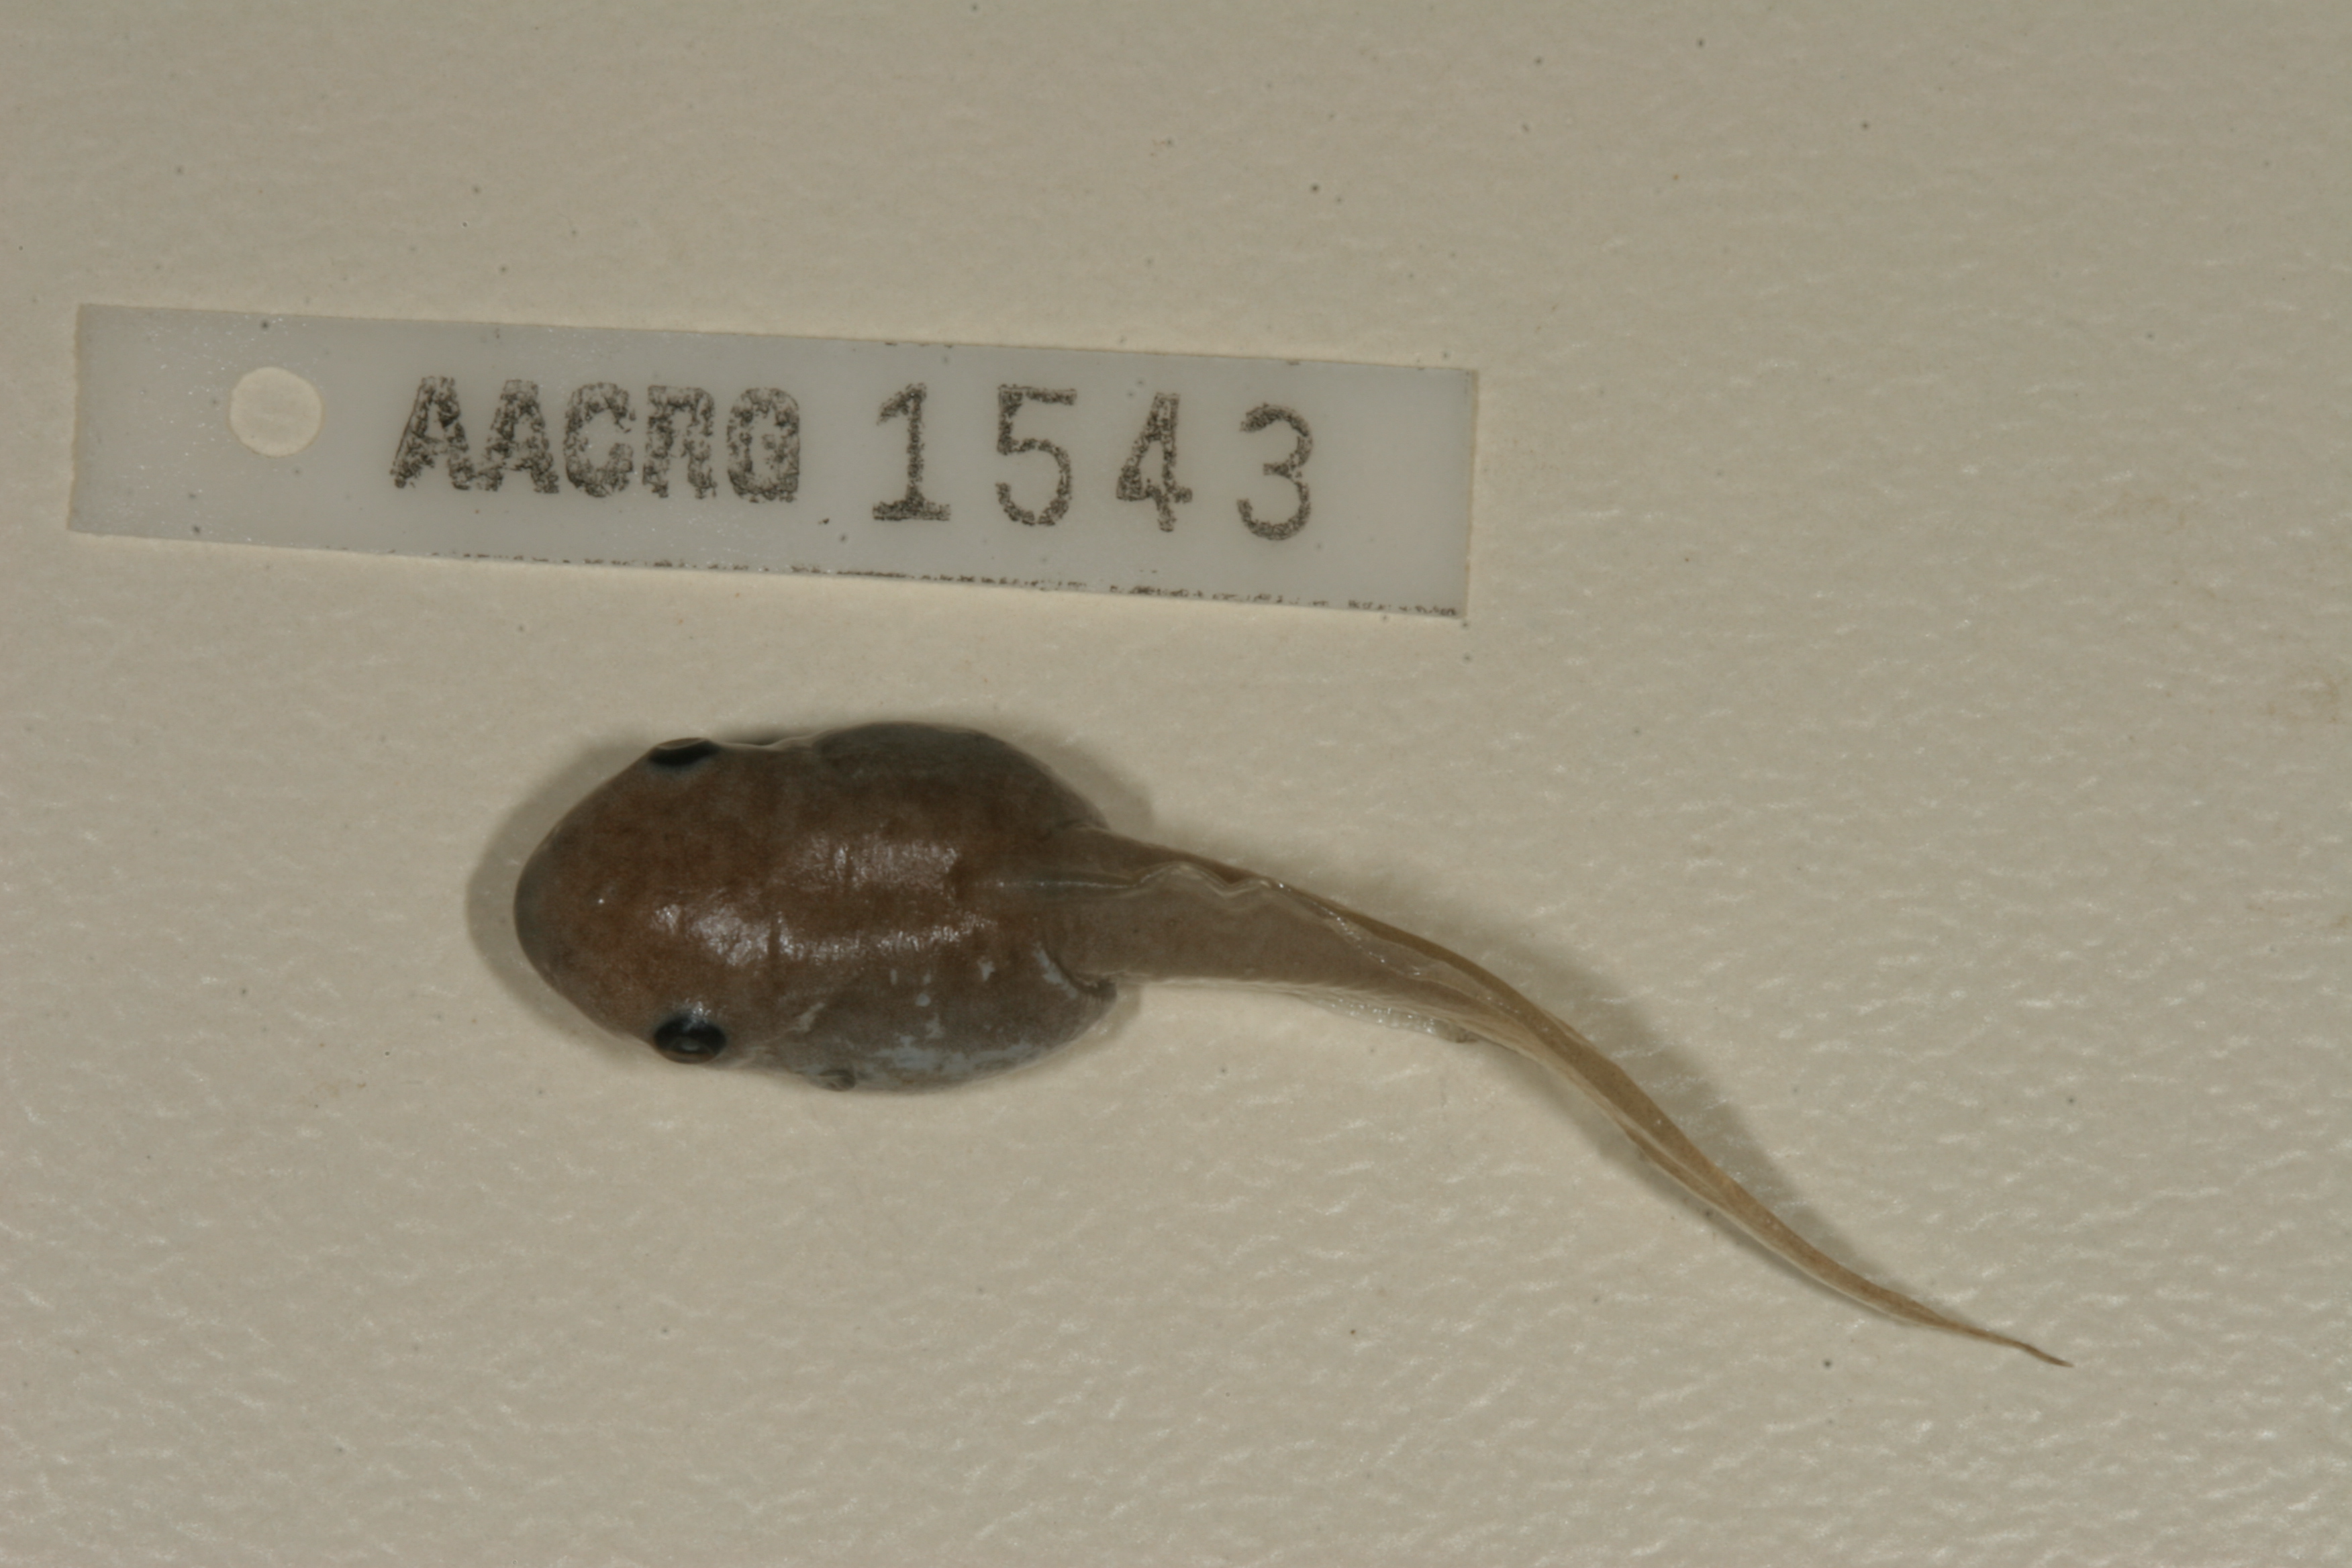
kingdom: Animalia
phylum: Chordata
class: Amphibia
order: Anura
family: Hemisotidae
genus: Hemisus
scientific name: Hemisus marmoratus
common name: Mottled shovel-nosed frog
